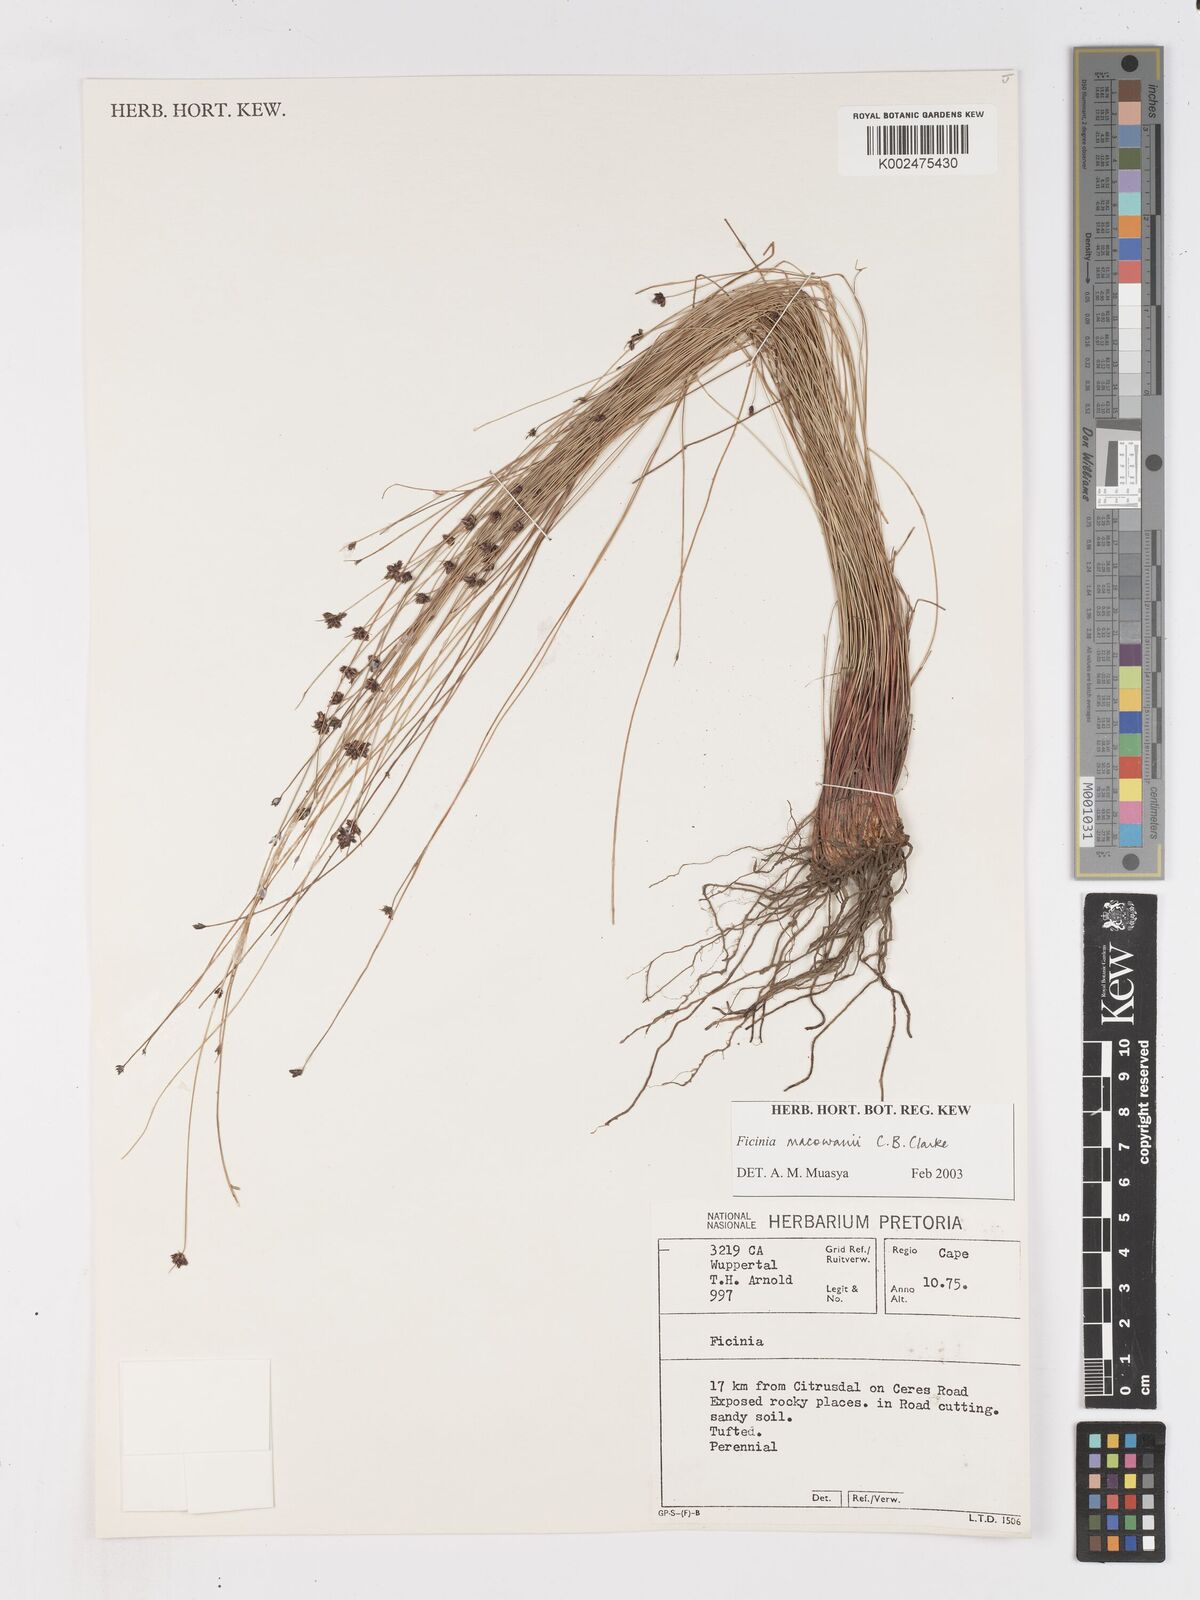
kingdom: Plantae
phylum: Tracheophyta
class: Liliopsida
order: Poales
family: Cyperaceae
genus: Ficinia
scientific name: Ficinia acuminata
